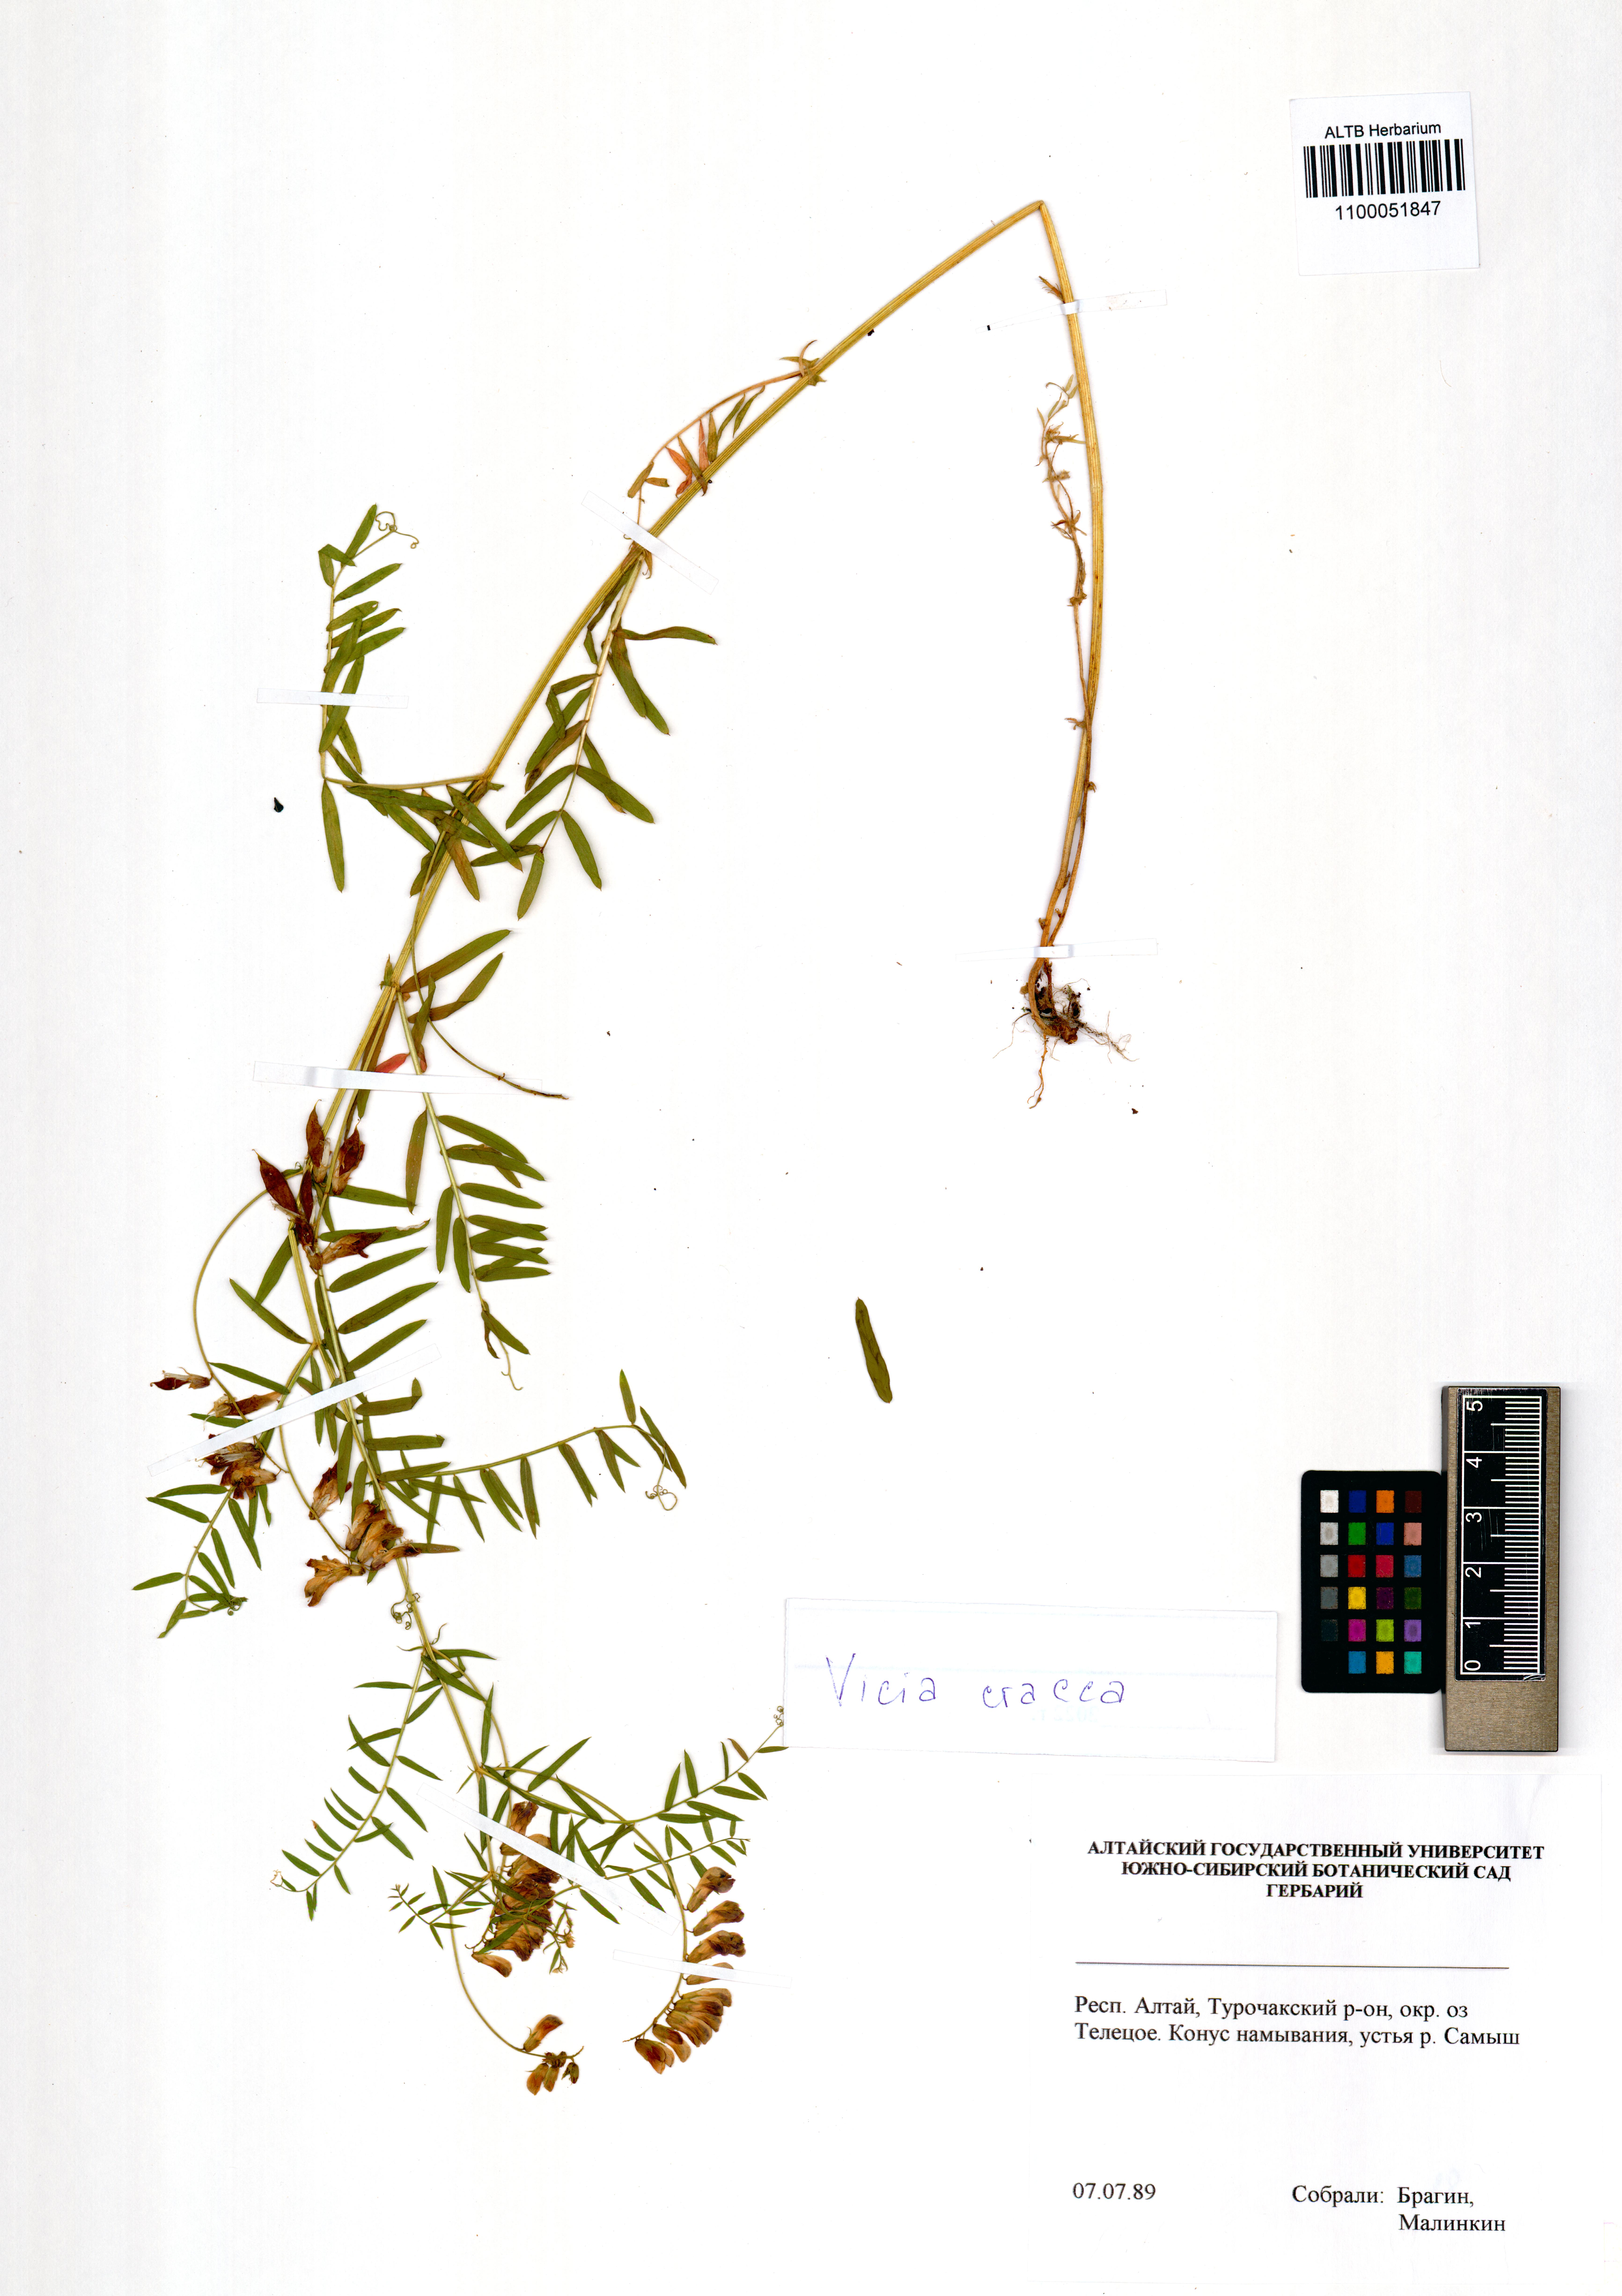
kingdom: Plantae
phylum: Tracheophyta
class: Magnoliopsida
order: Fabales
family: Fabaceae
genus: Vicia
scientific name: Vicia cracca
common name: Bird vetch
